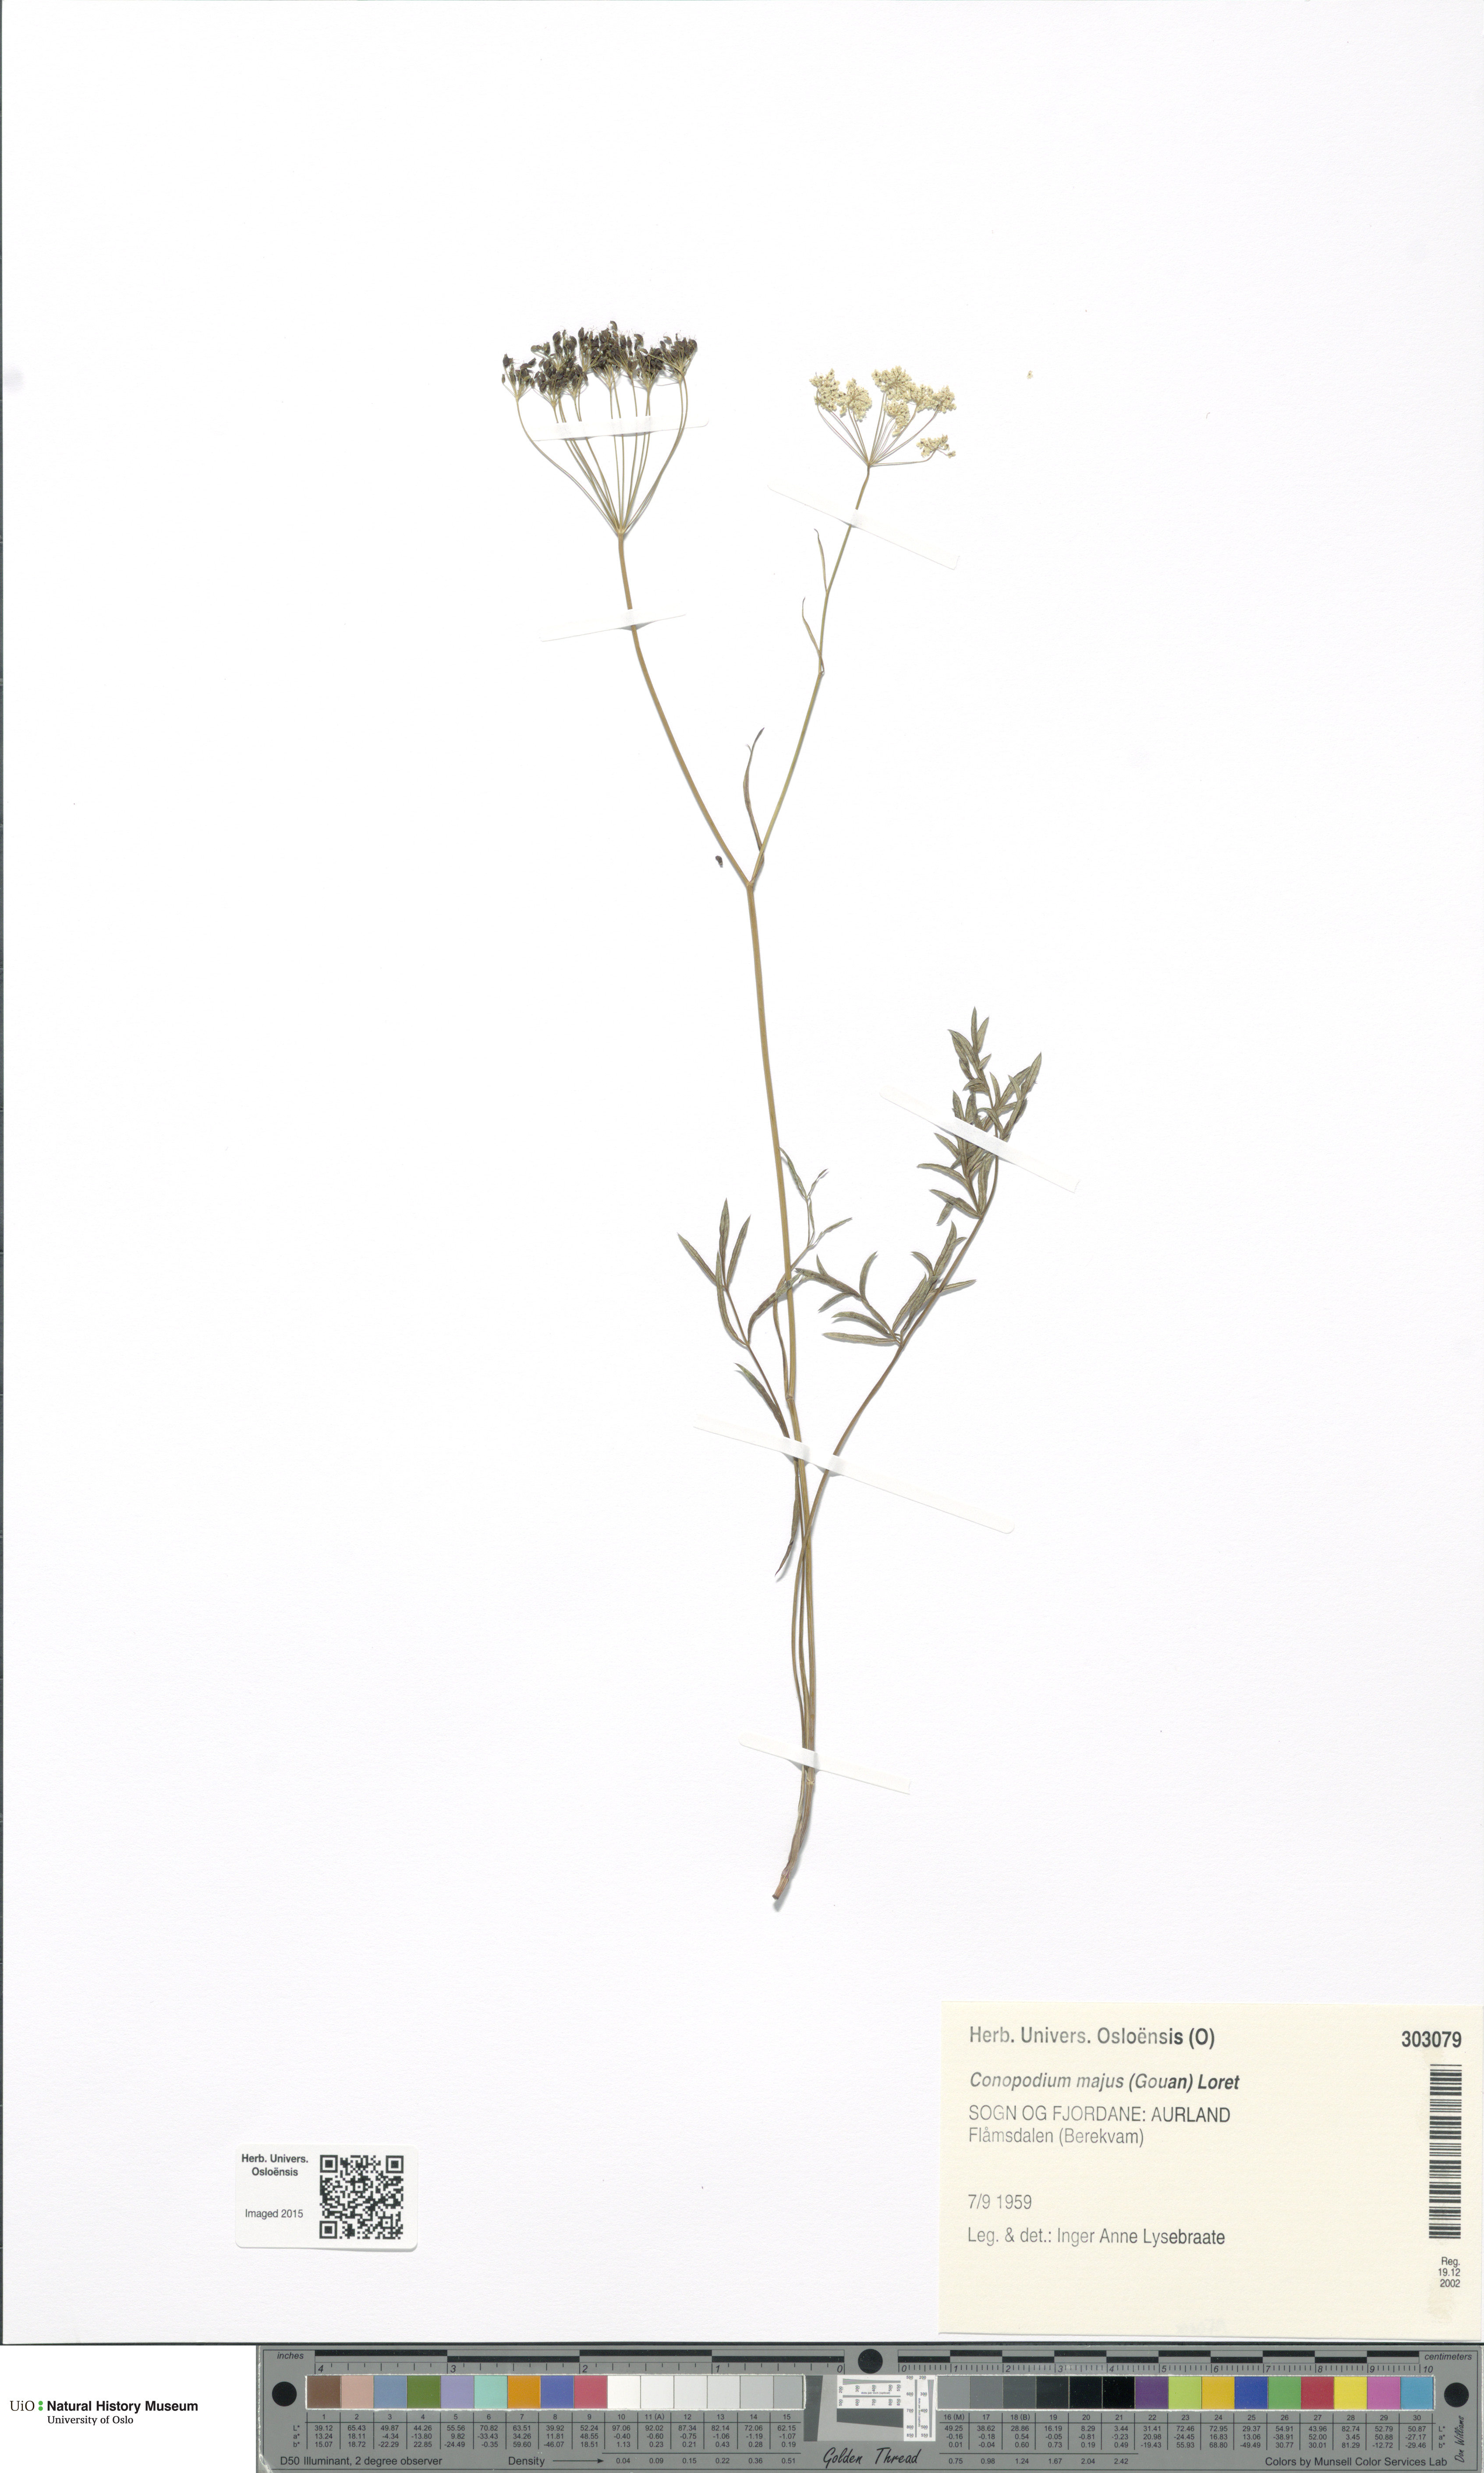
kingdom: Plantae
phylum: Tracheophyta
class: Magnoliopsida
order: Apiales
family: Apiaceae
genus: Conopodium
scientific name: Conopodium majus
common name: Pignut
